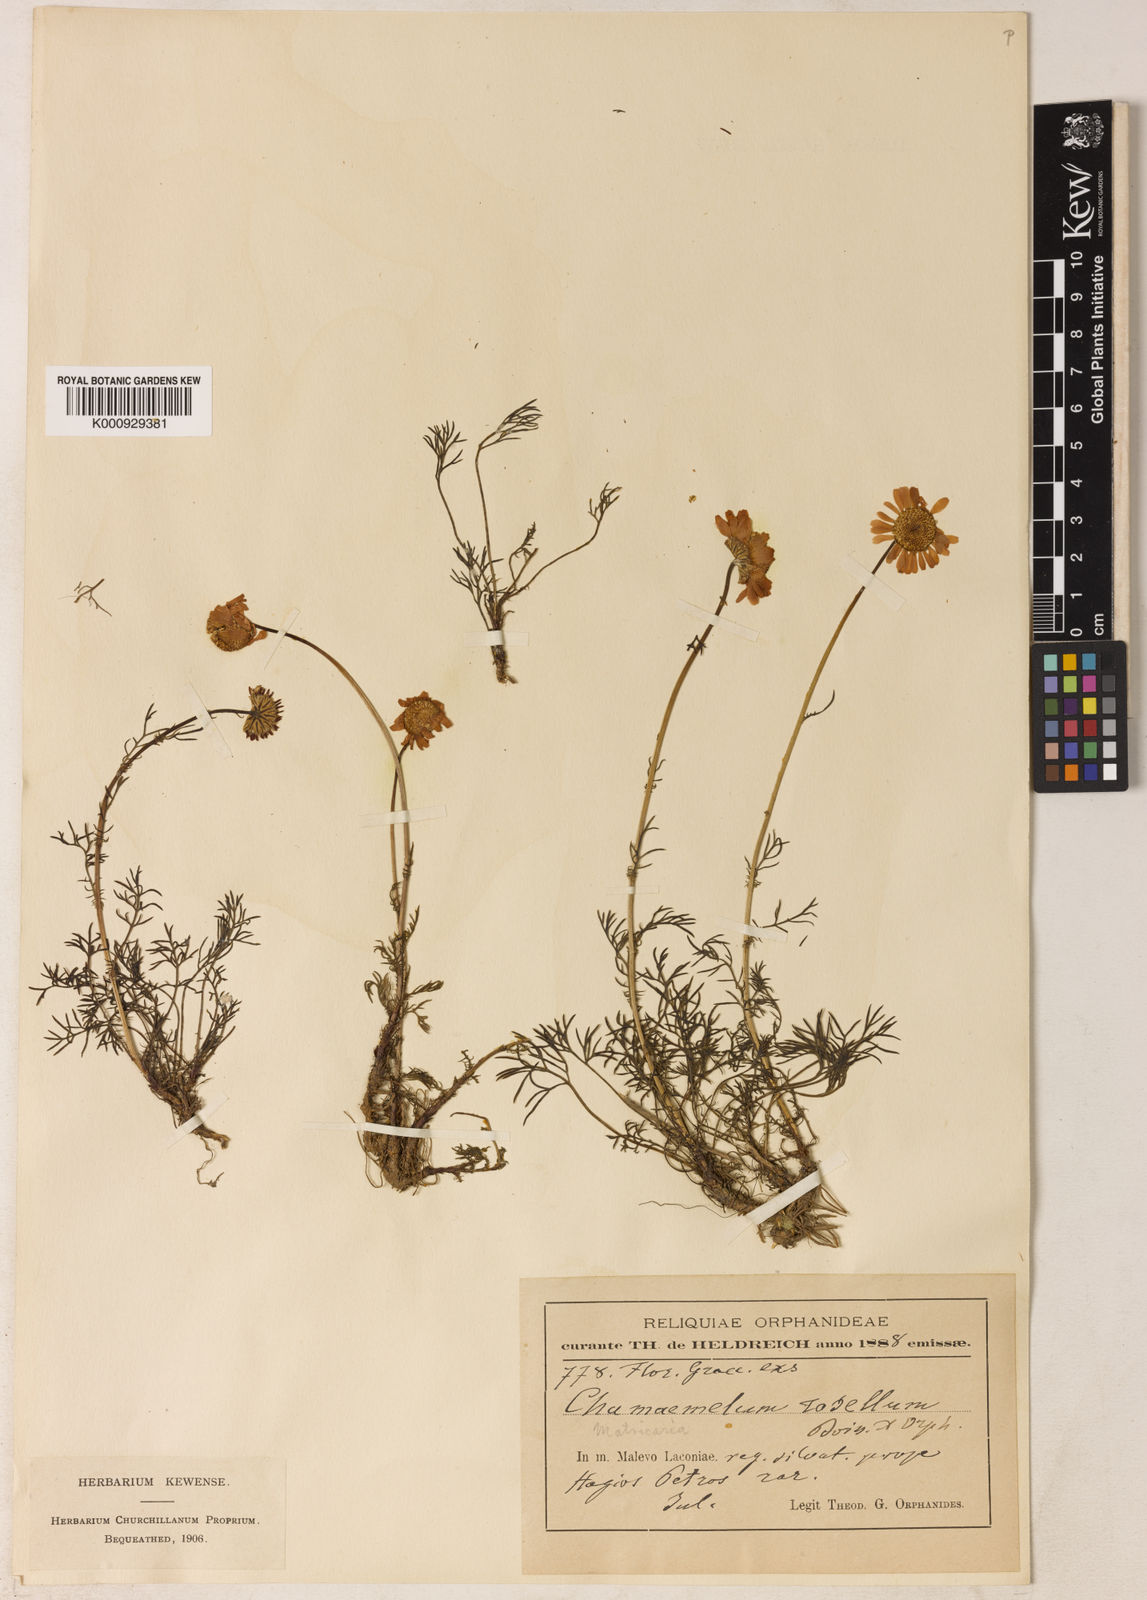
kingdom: Plantae
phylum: Tracheophyta
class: Magnoliopsida
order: Asterales
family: Asteraceae
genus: Tripleurospermum
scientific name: Tripleurospermum rosellum
